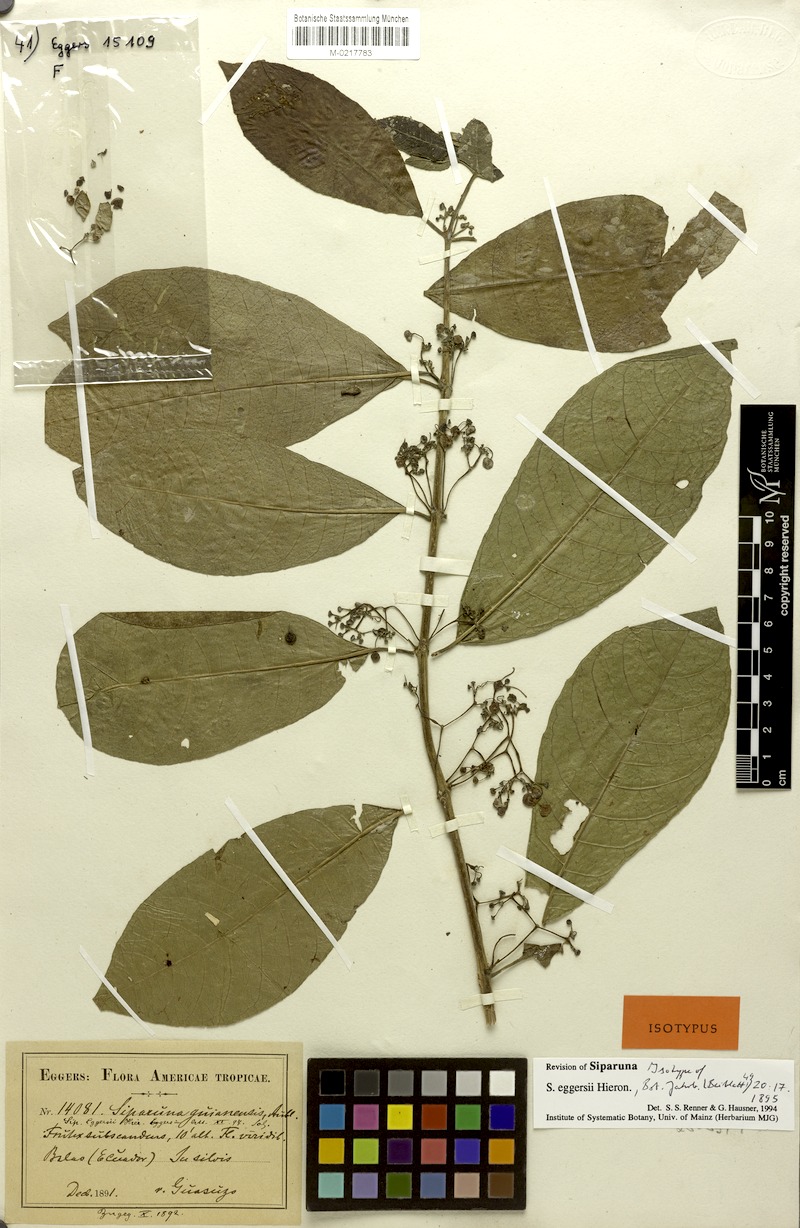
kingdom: Plantae
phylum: Tracheophyta
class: Magnoliopsida
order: Laurales
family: Siparunaceae
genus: Siparuna
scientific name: Siparuna eggersii
